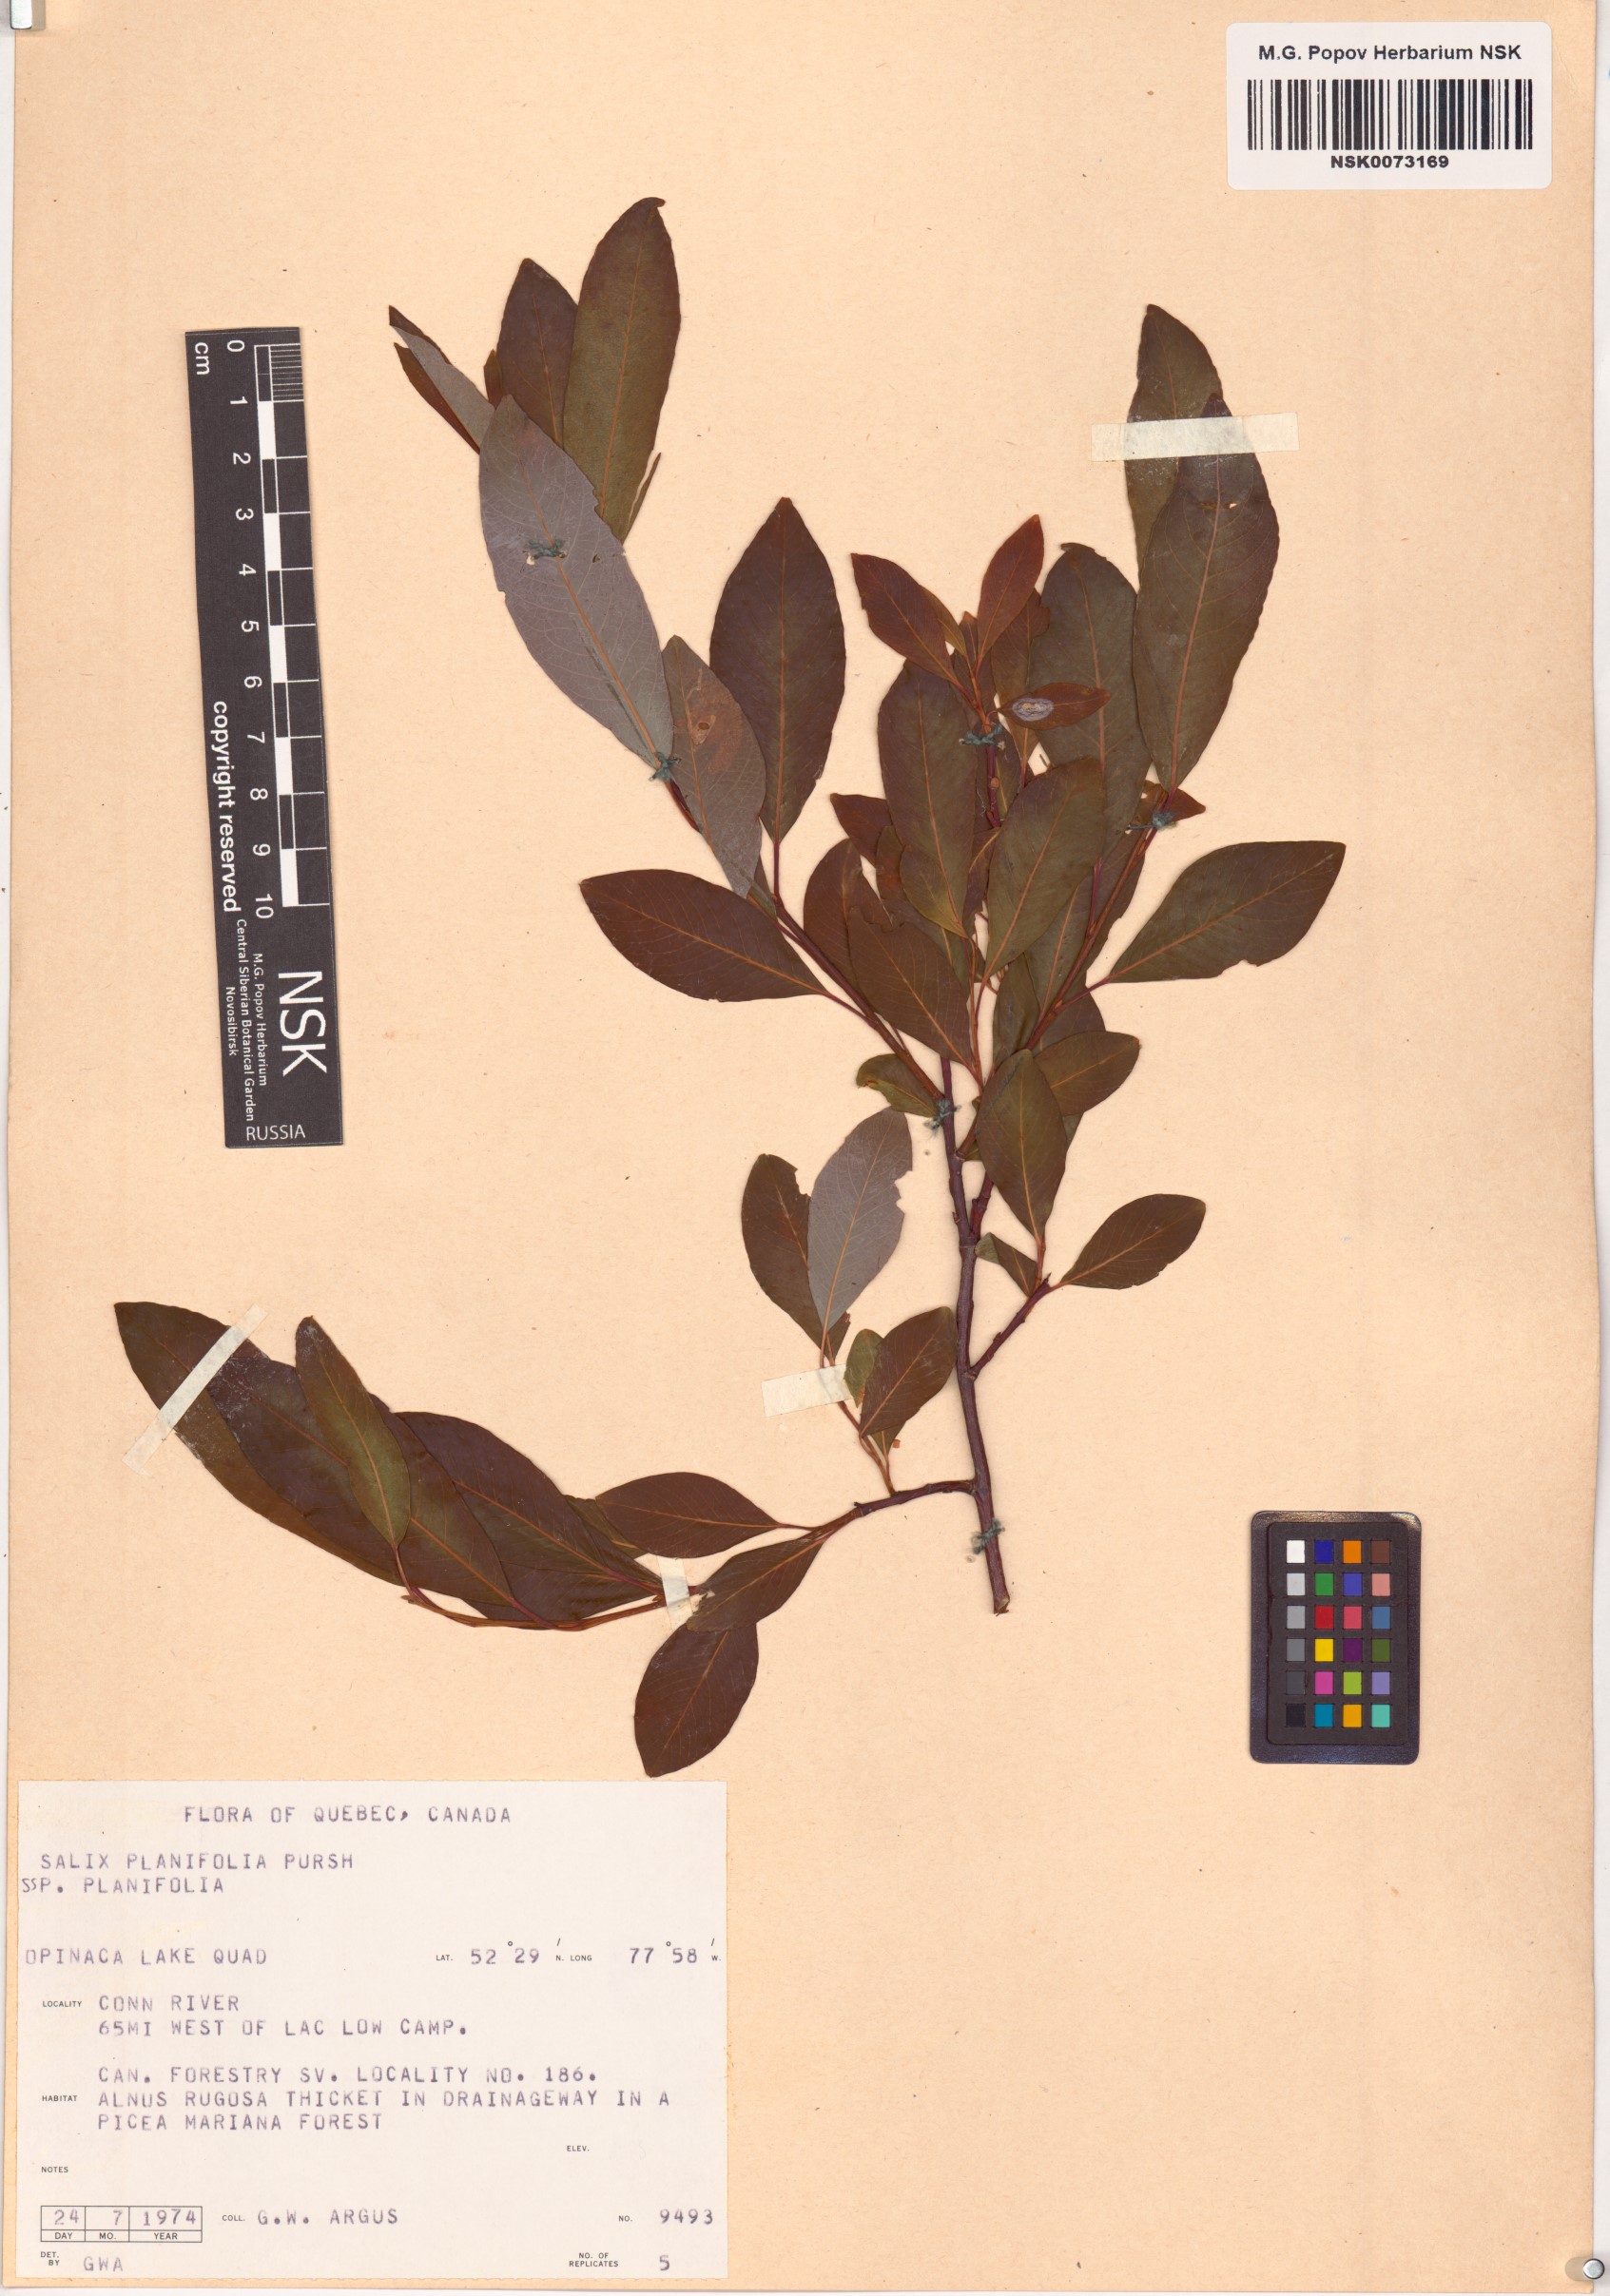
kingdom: Plantae
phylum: Tracheophyta
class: Magnoliopsida
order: Malpighiales
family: Salicaceae
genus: Salix
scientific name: Salix planifolia
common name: Mountain willow
